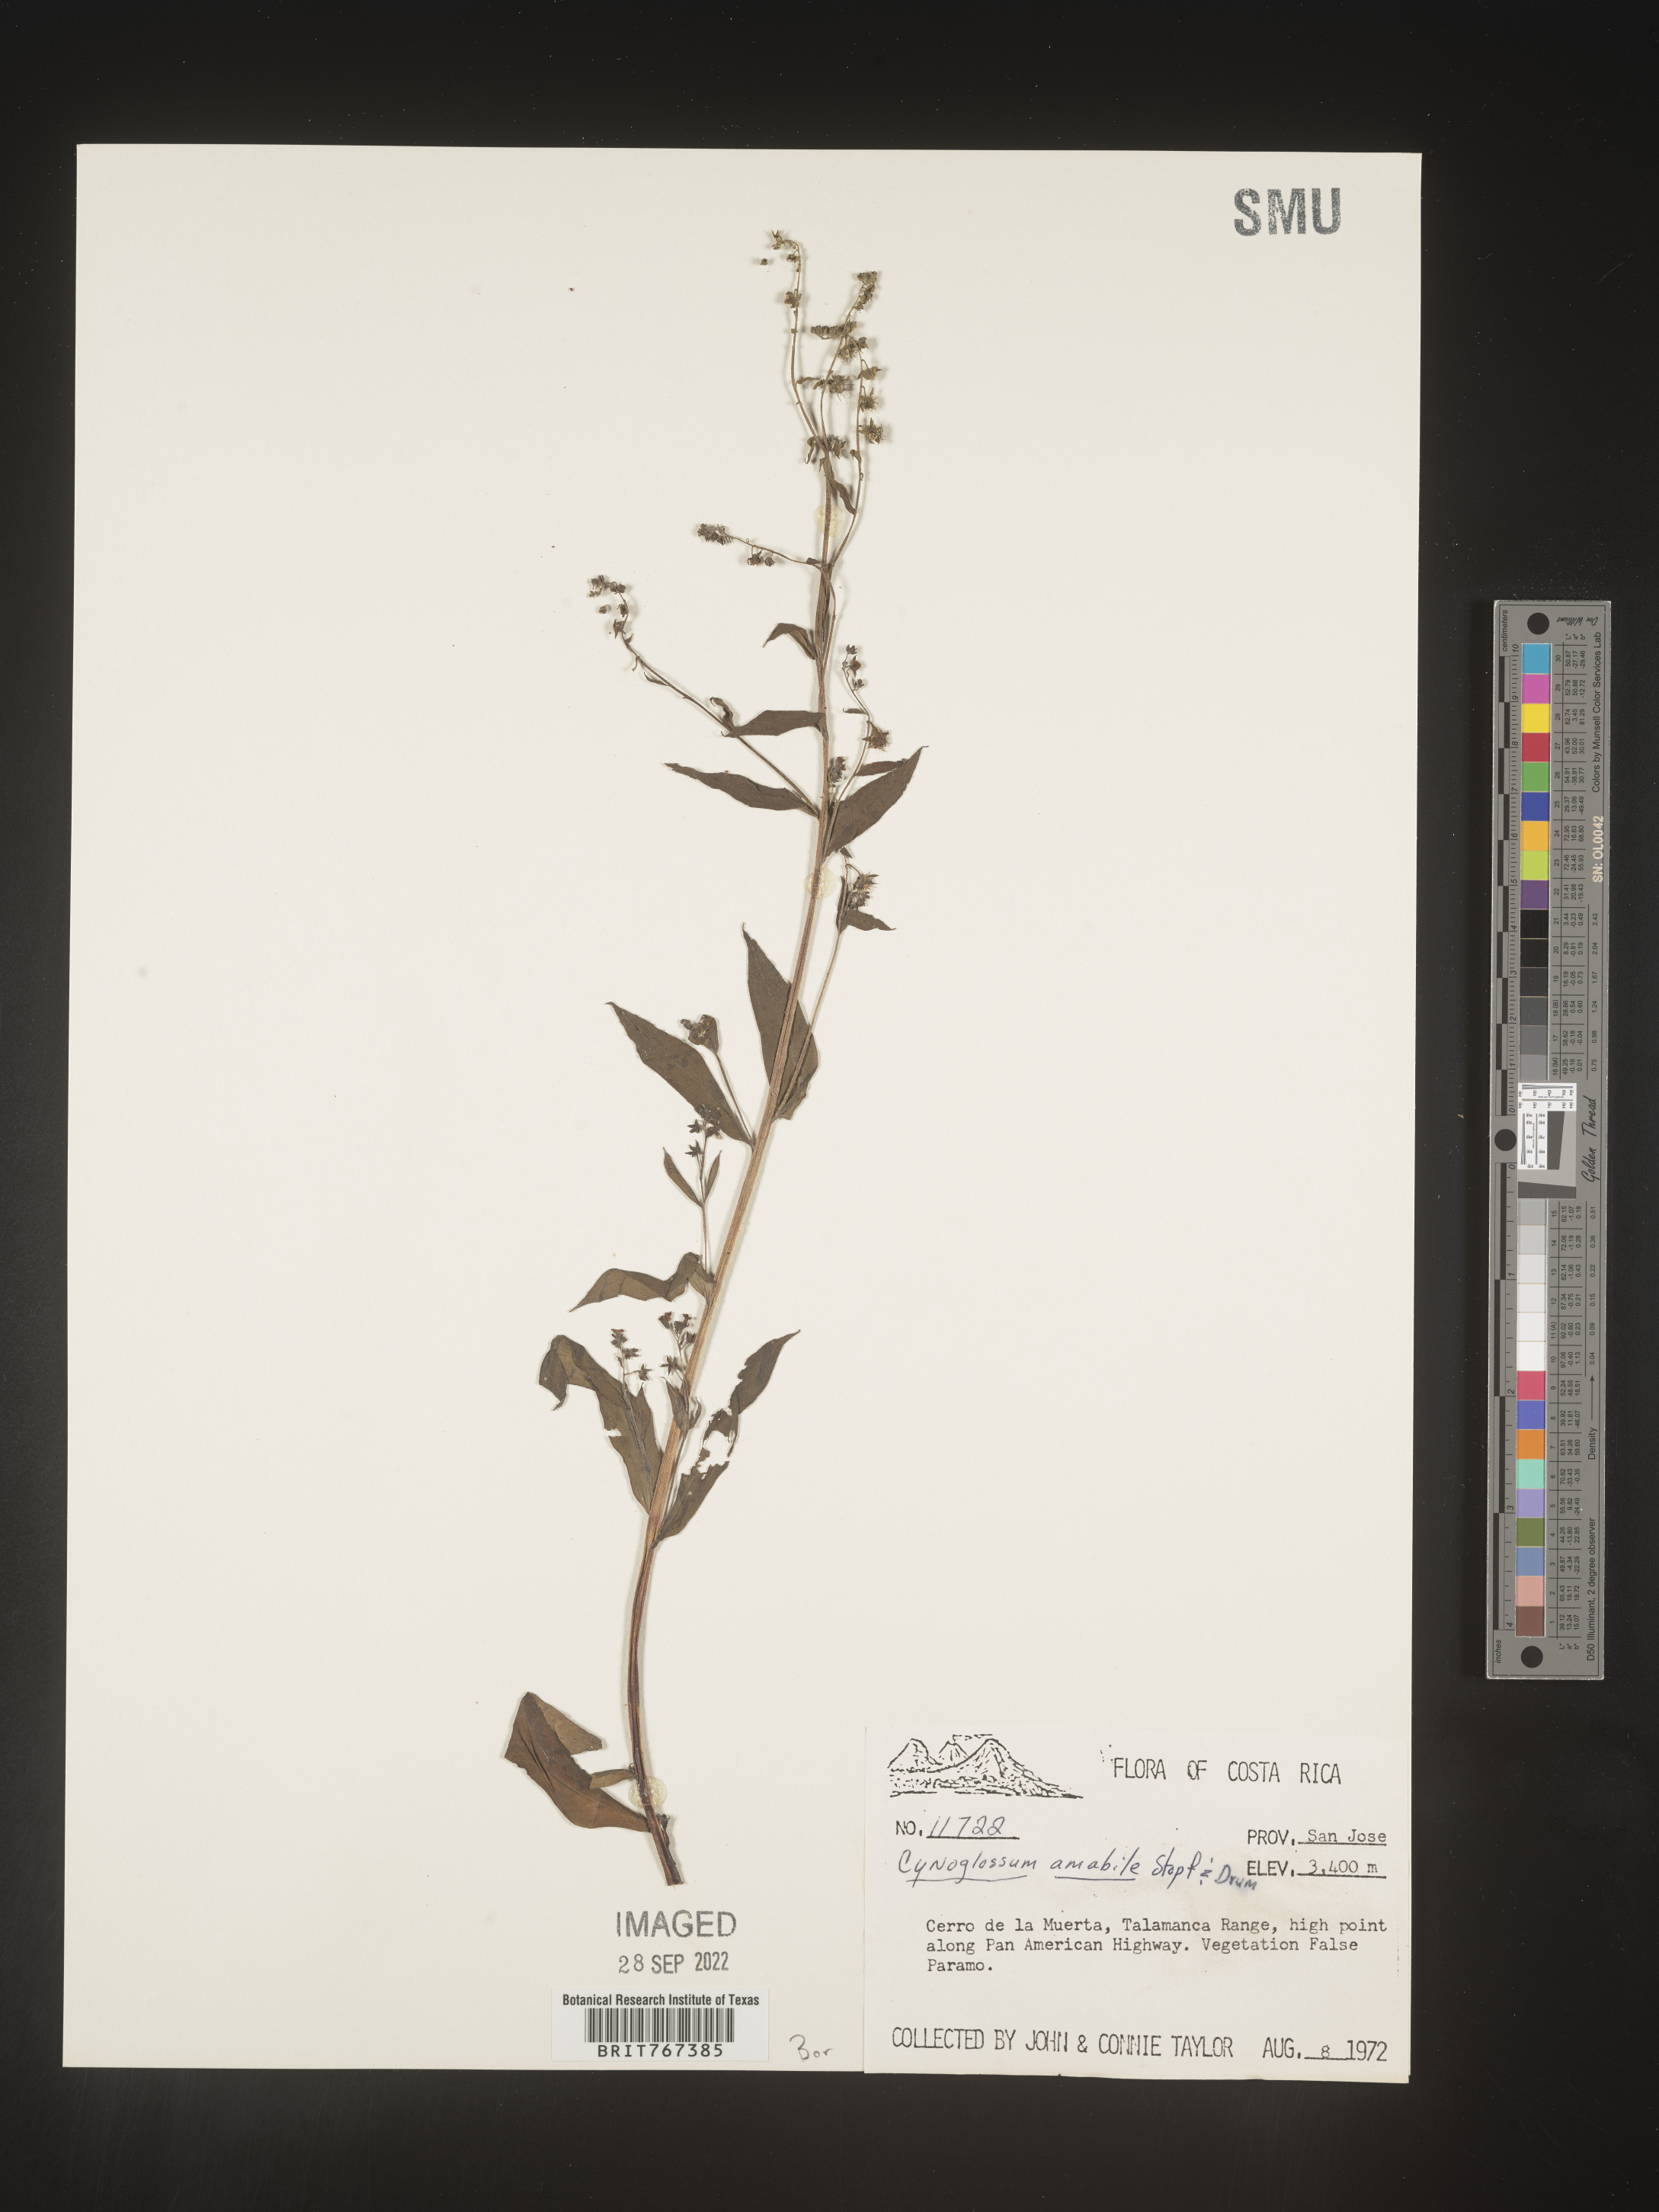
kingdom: Plantae
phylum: Tracheophyta
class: Magnoliopsida
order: Boraginales
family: Boraginaceae
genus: Cynoglossum
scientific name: Cynoglossum
